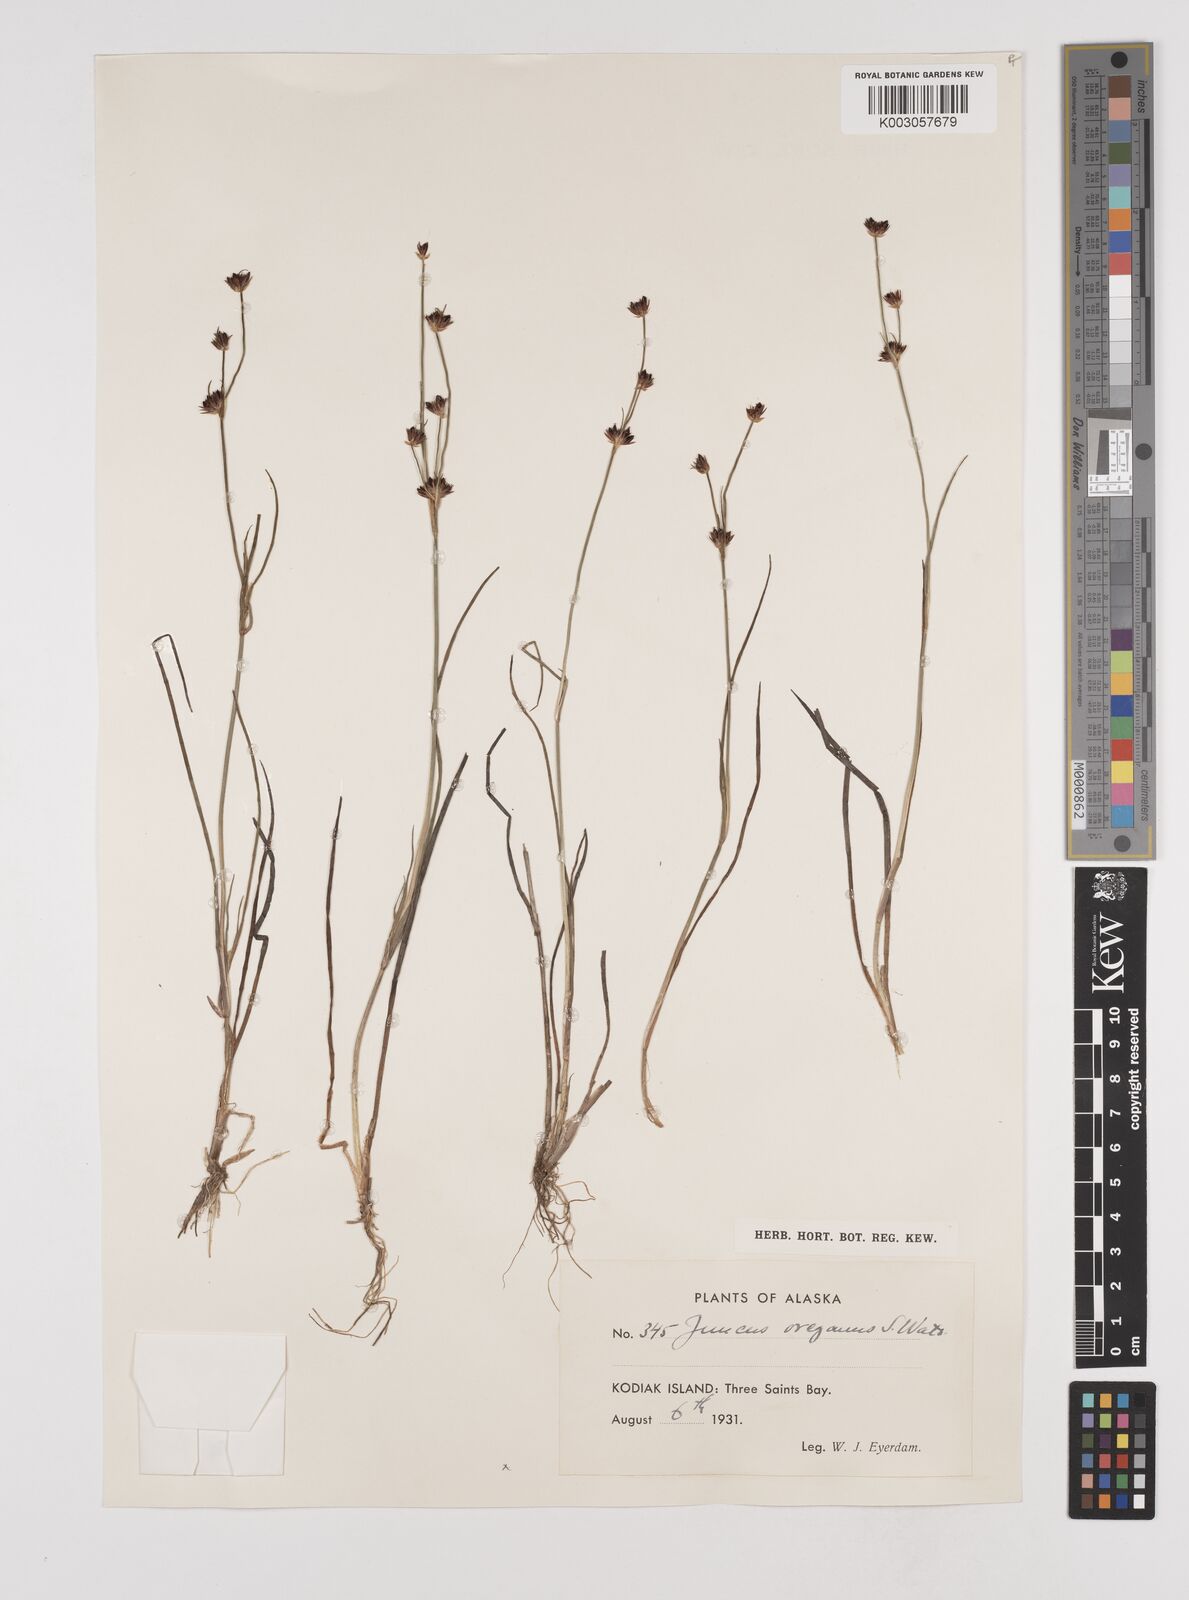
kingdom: Plantae
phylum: Tracheophyta
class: Liliopsida
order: Poales
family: Juncaceae
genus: Juncus
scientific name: Juncus supiniformis
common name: Hairy-leaved rush
